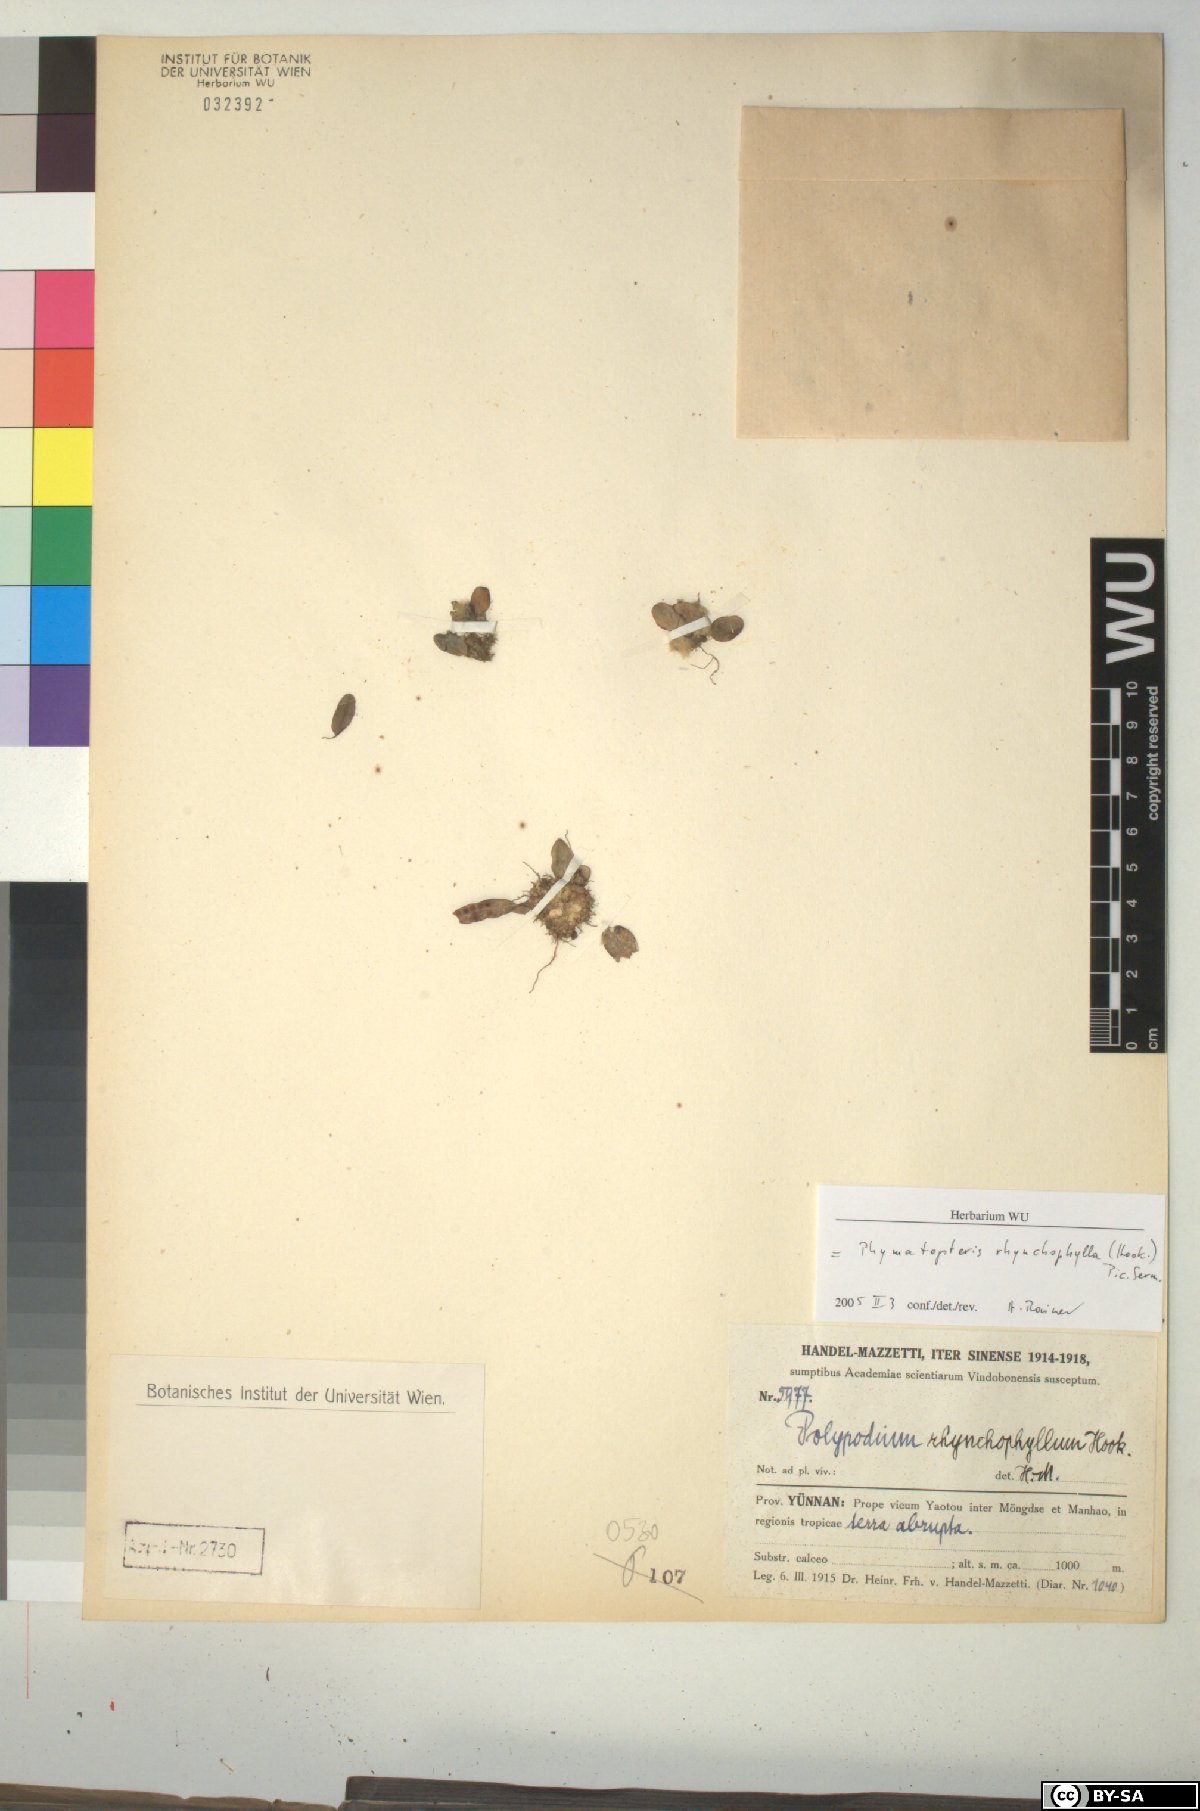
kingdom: Plantae
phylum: Tracheophyta
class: Polypodiopsida
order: Polypodiales
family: Polypodiaceae
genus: Selliguea
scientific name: Selliguea rhynchophylla
